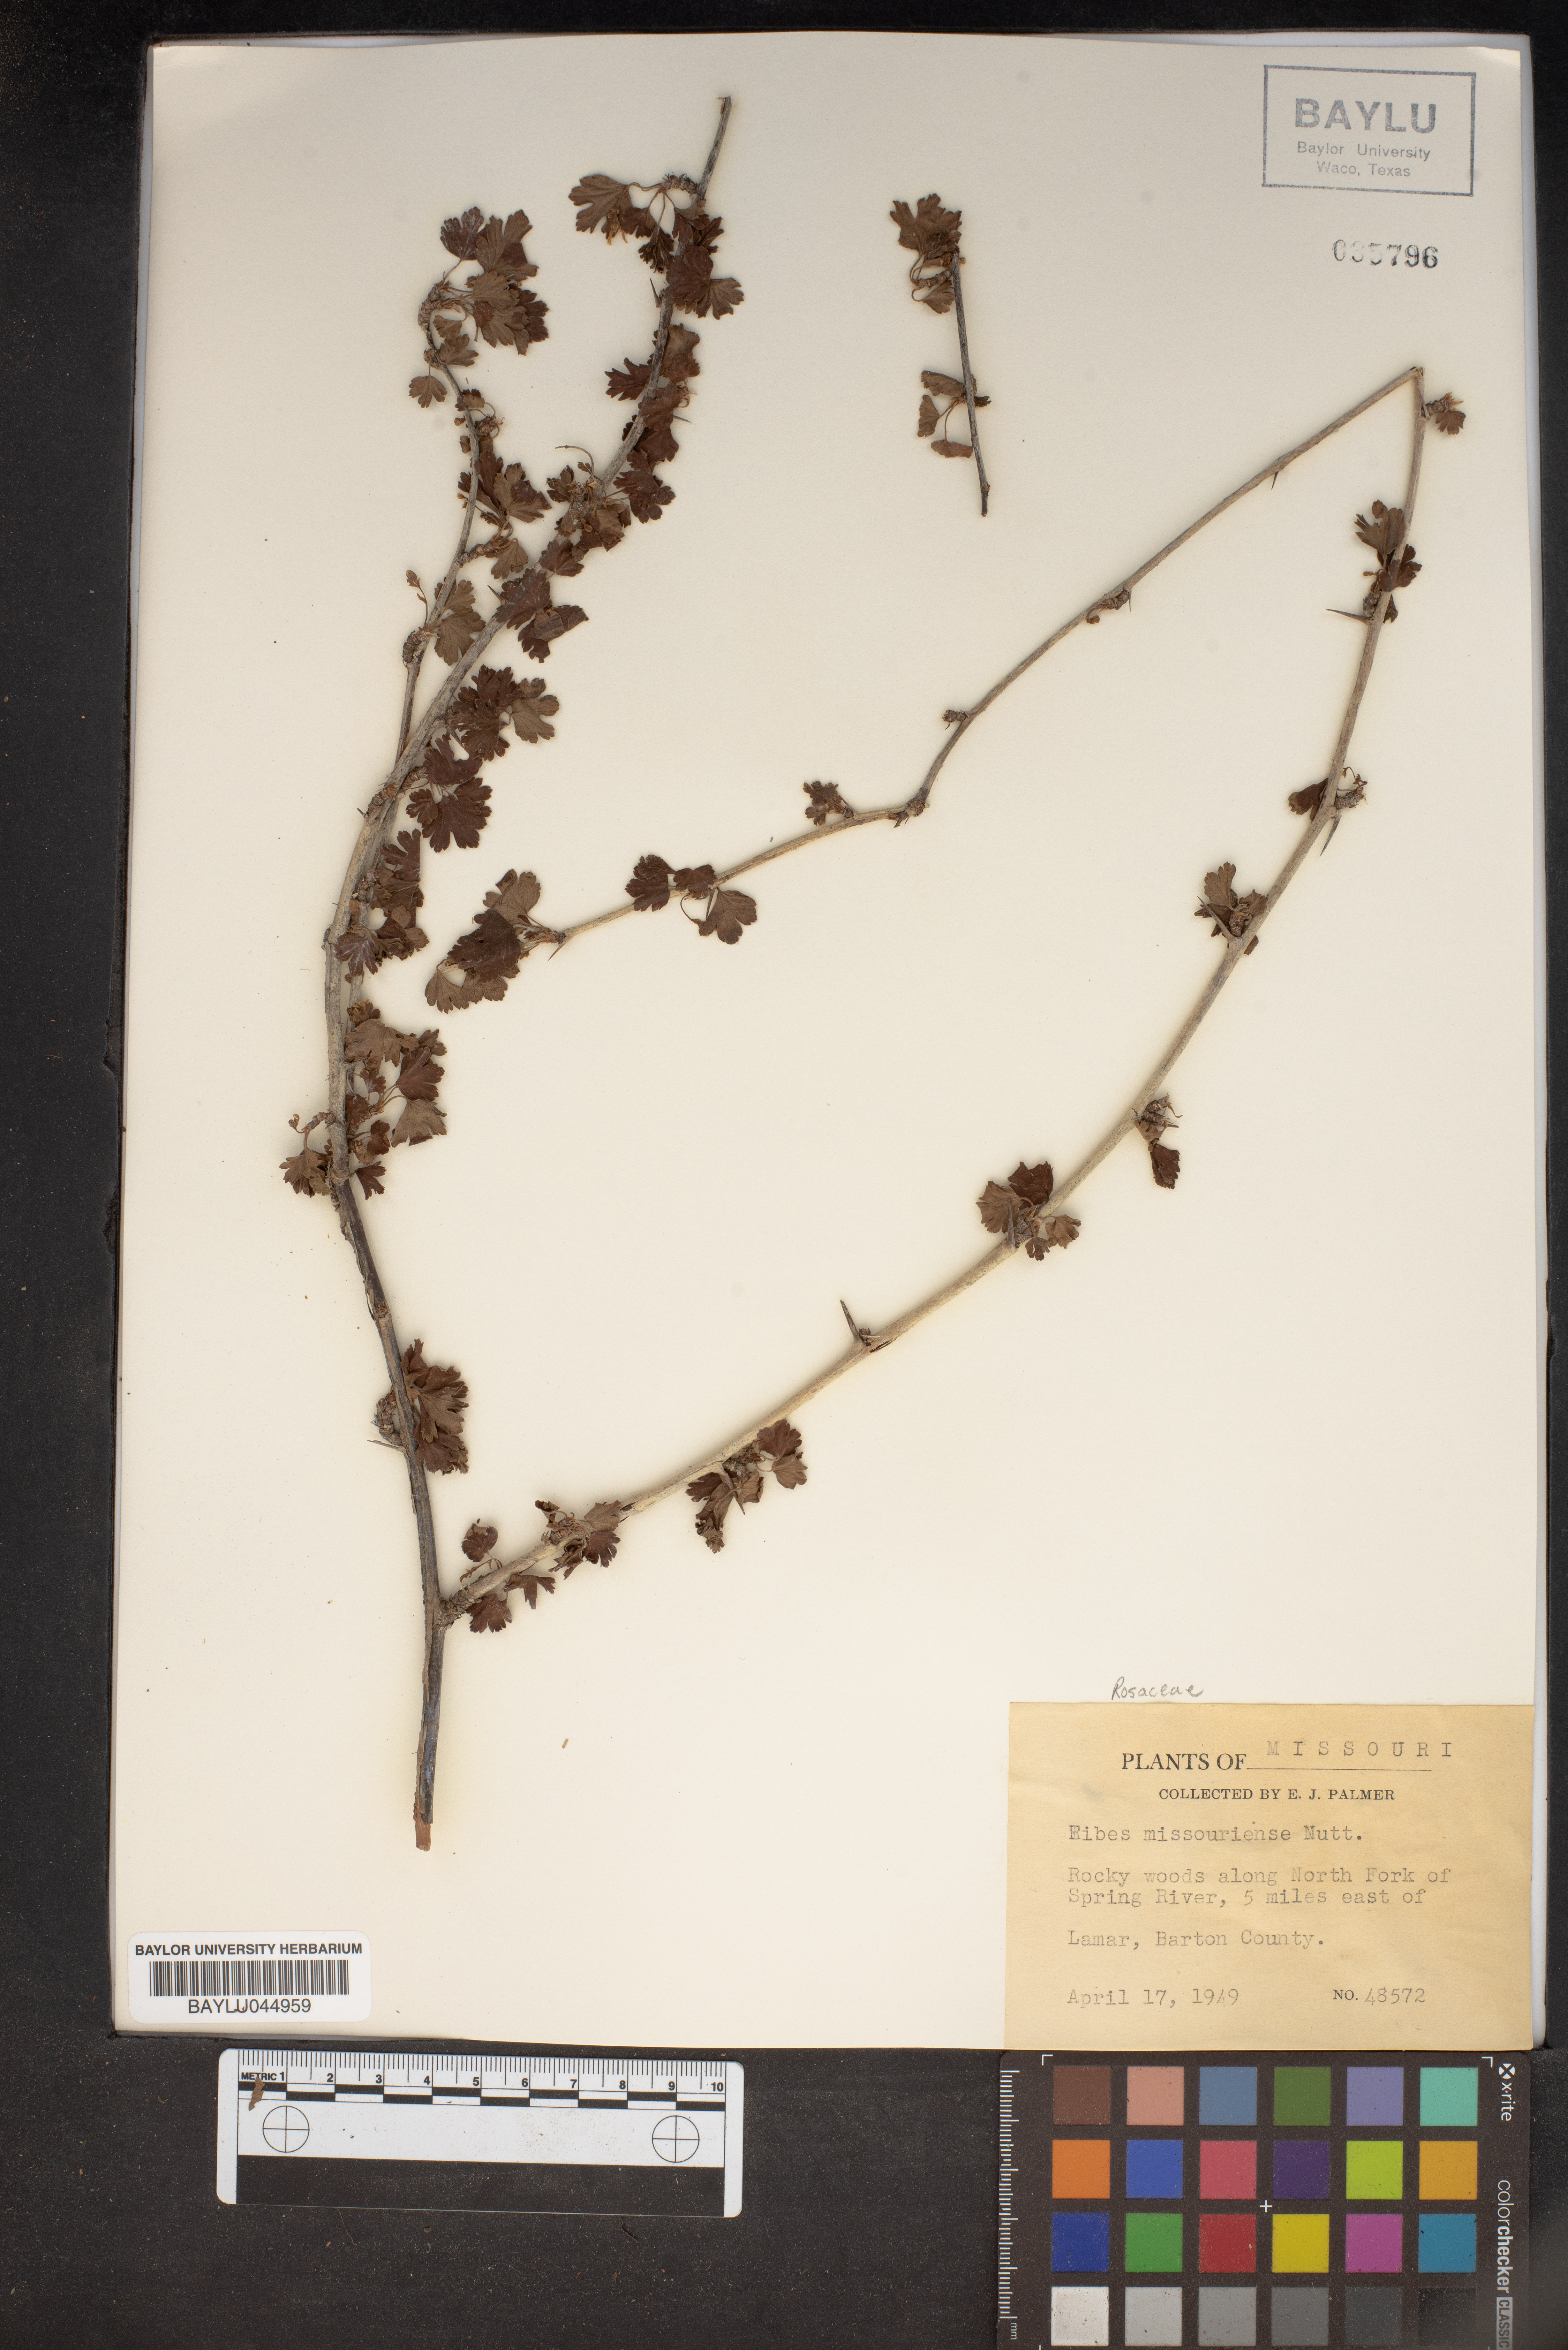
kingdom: Plantae
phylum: Tracheophyta
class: Magnoliopsida
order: Saxifragales
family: Grossulariaceae
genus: Ribes
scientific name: Ribes missouriense
